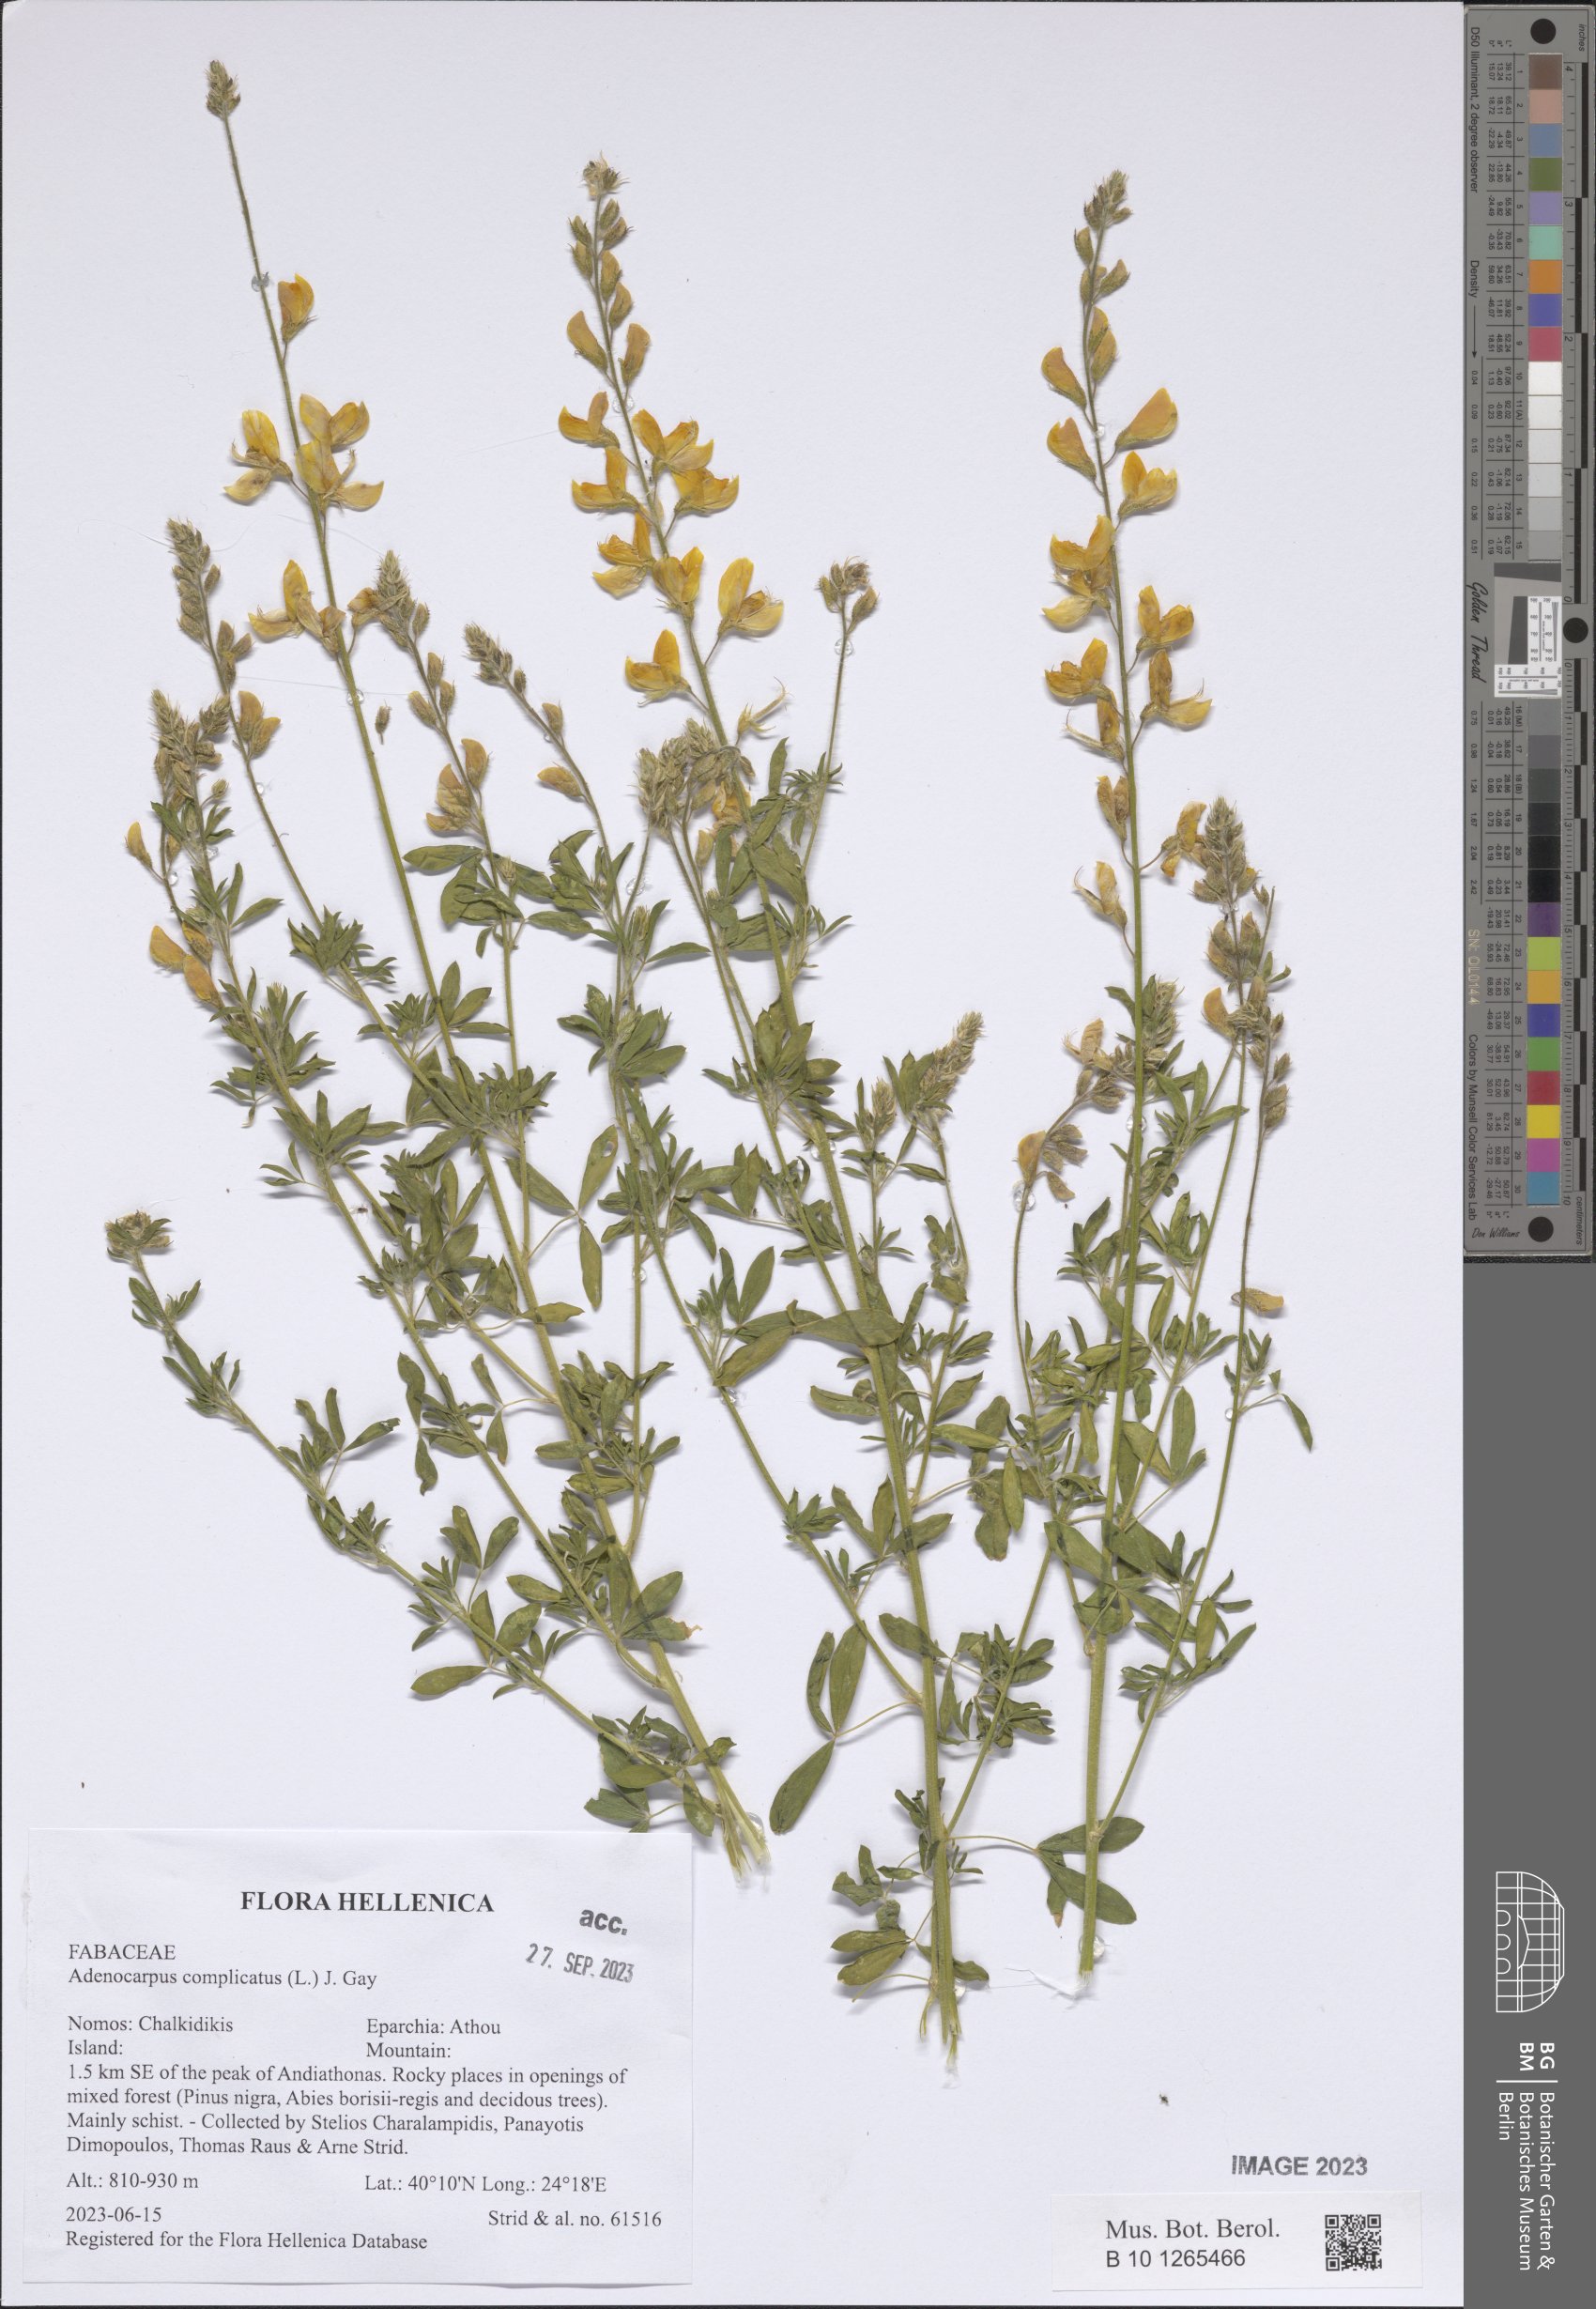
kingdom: Plantae
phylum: Tracheophyta
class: Magnoliopsida
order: Fabales
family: Fabaceae
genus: Adenocarpus
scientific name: Adenocarpus complicatus
